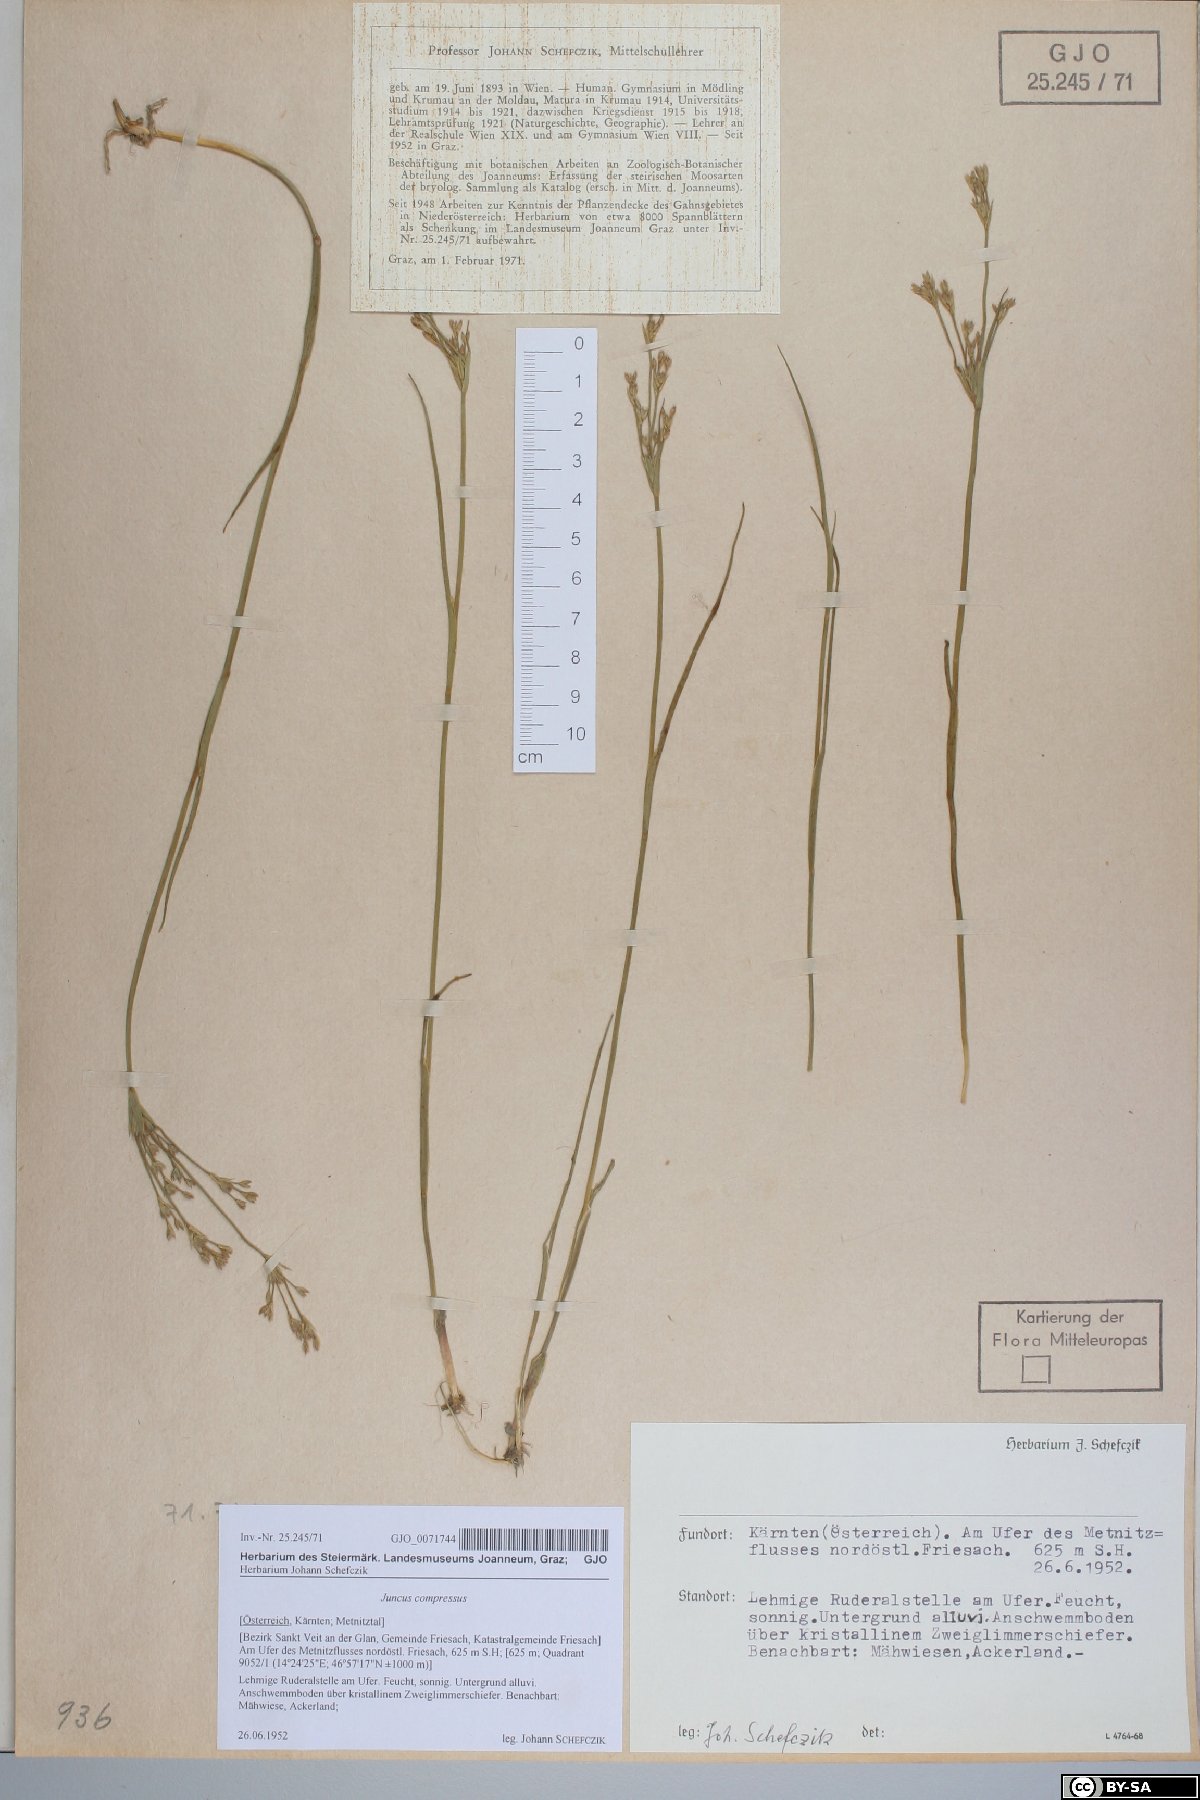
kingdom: Plantae
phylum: Tracheophyta
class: Liliopsida
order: Poales
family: Juncaceae
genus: Juncus
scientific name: Juncus compressus
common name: Round-fruited rush
